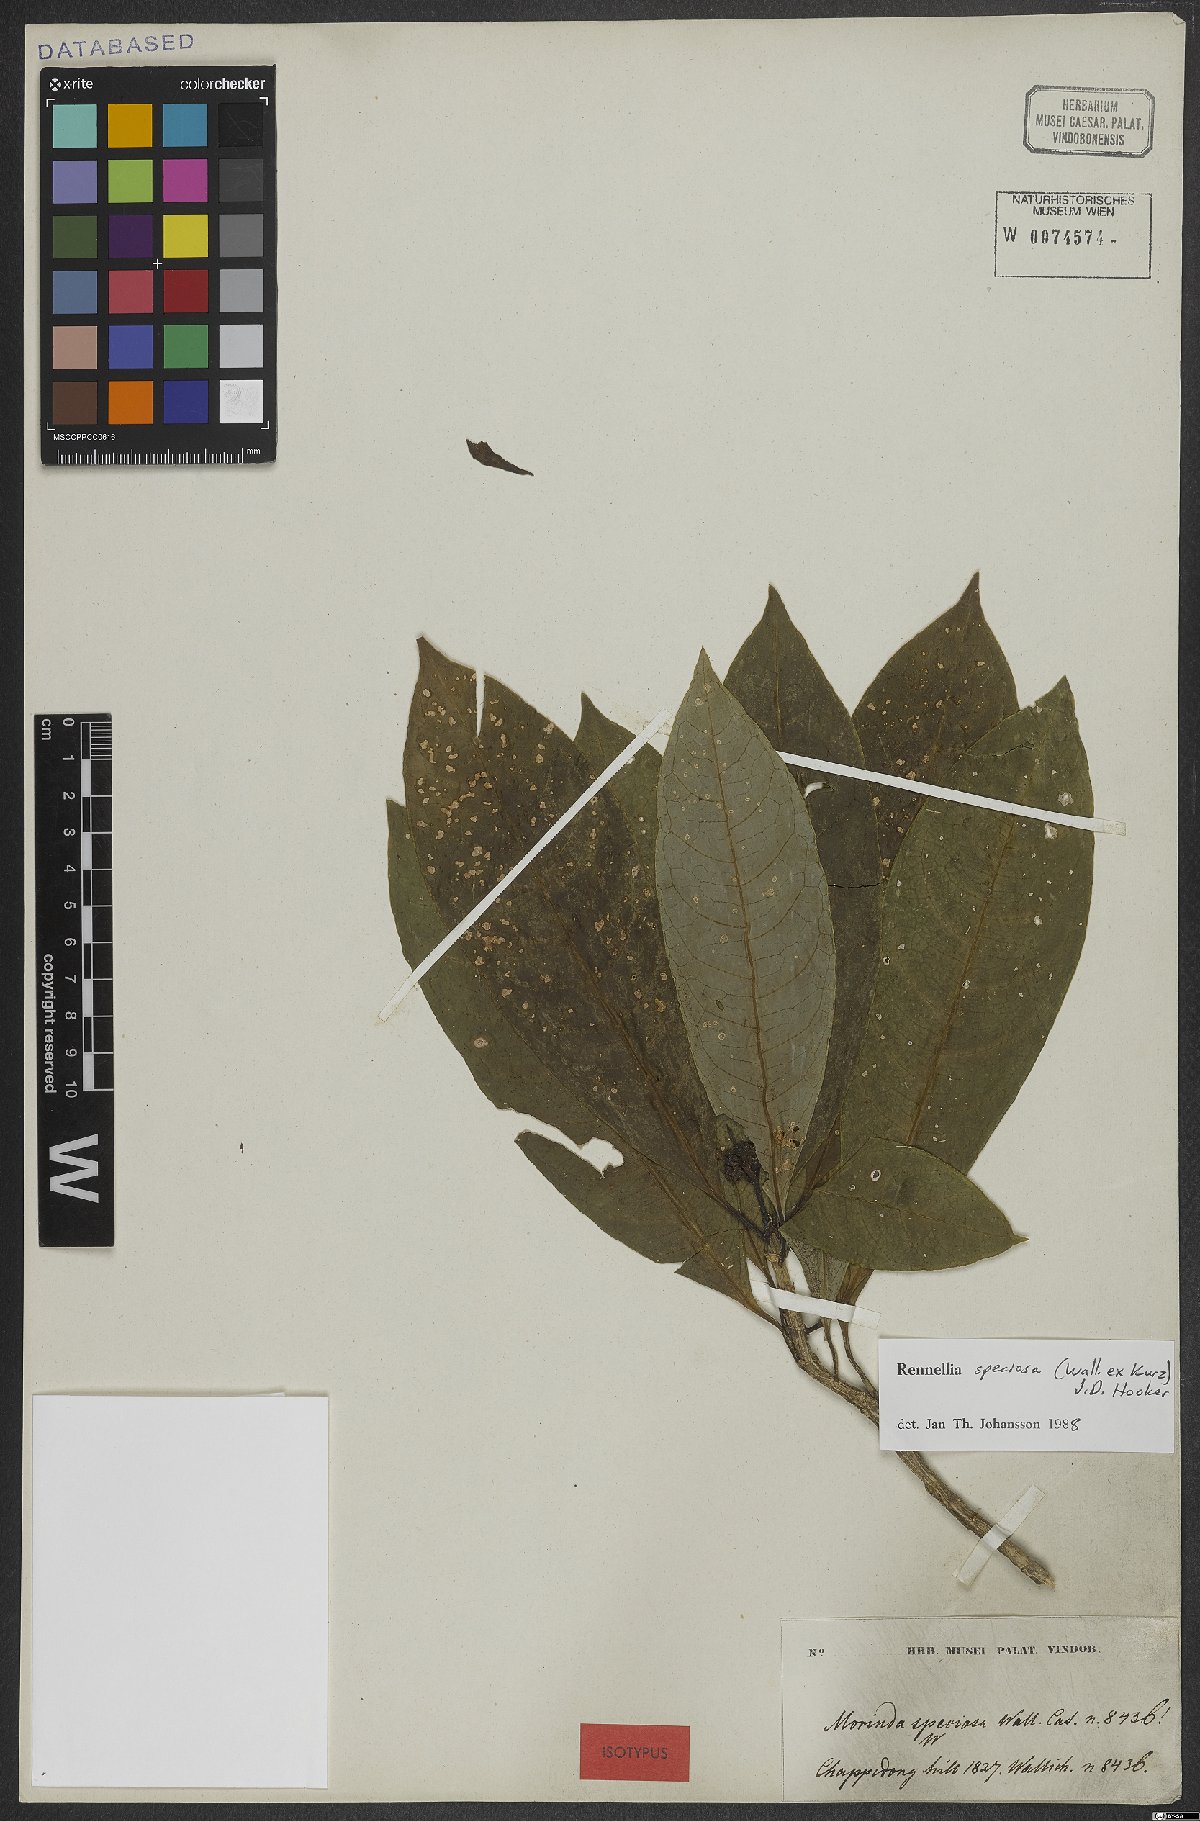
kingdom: Plantae
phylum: Tracheophyta
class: Magnoliopsida
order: Gentianales
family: Rubiaceae
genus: Rennellia
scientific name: Rennellia speciosa
